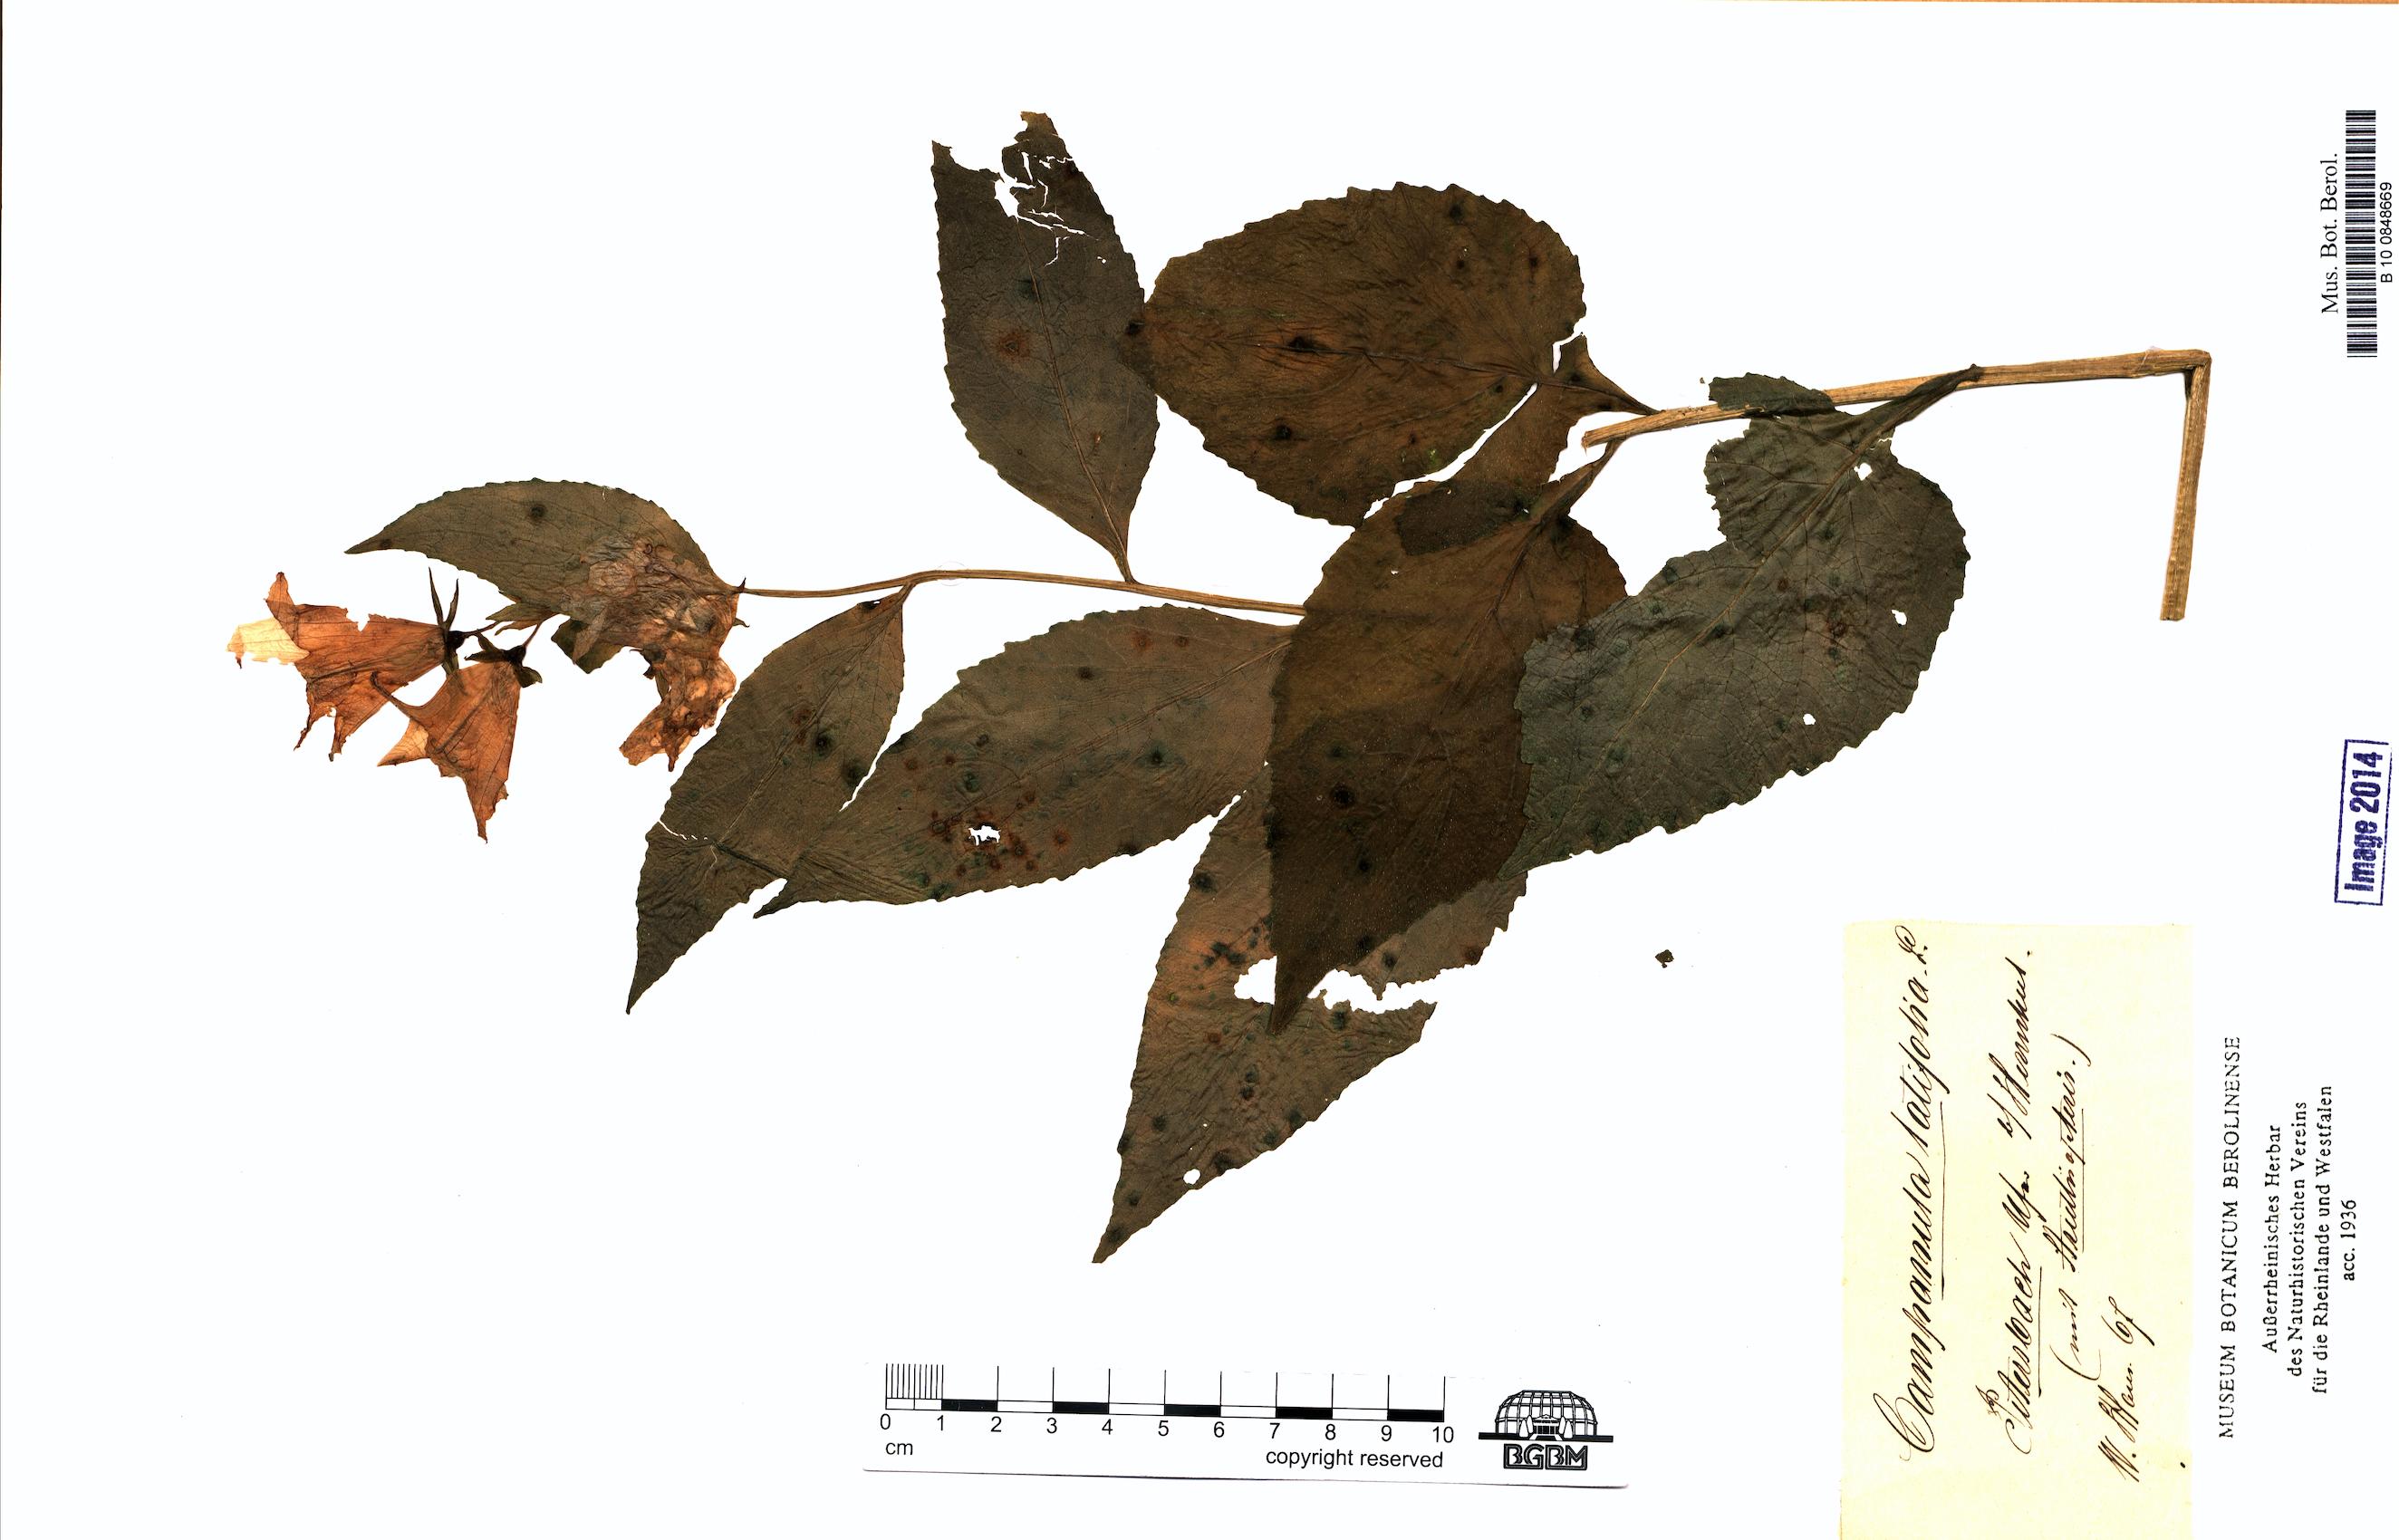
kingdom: Plantae
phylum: Tracheophyta
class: Magnoliopsida
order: Asterales
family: Campanulaceae
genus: Campanula
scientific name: Campanula latifolia
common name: Giant bellflower
